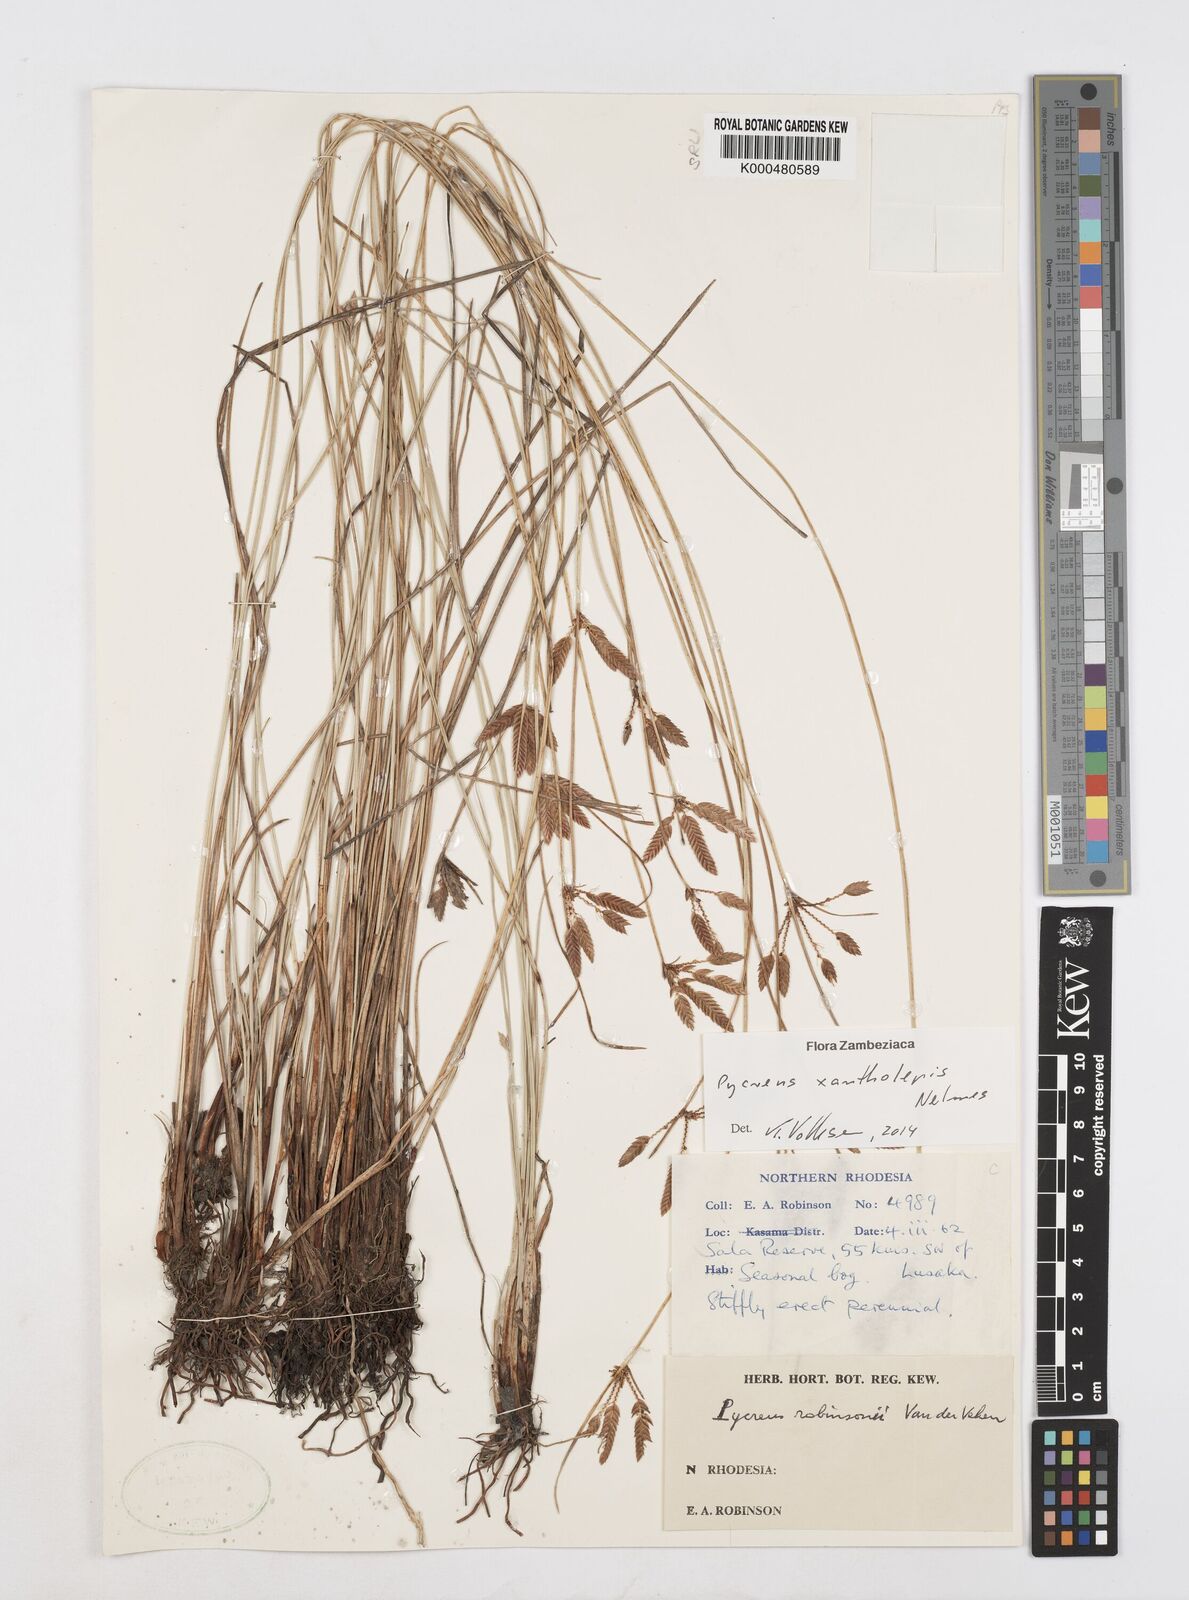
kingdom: Plantae
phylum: Tracheophyta
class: Liliopsida
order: Poales
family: Cyperaceae
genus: Cyperus
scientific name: Cyperus xantholepis
